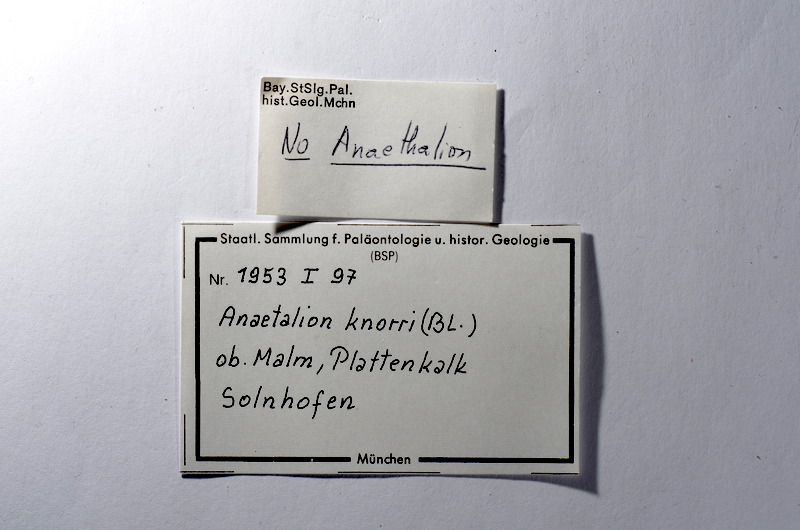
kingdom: Animalia
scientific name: Animalia
